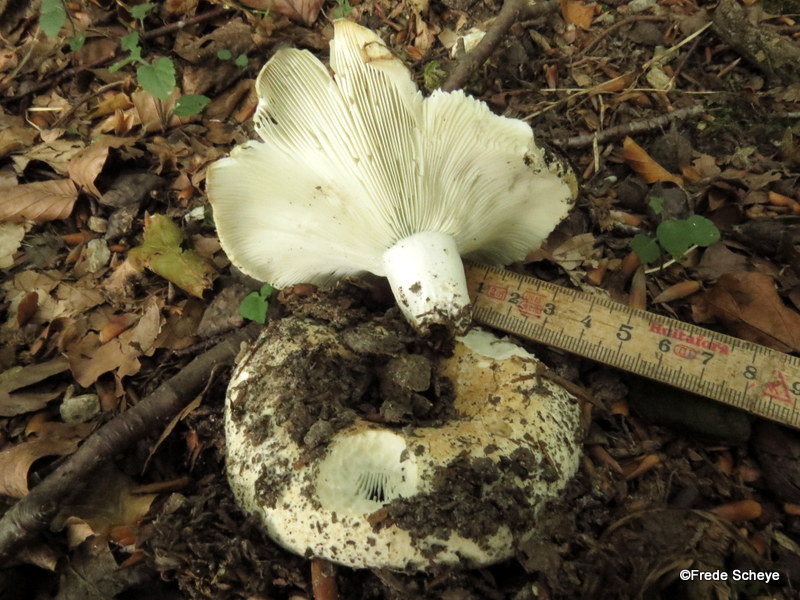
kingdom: Fungi
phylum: Basidiomycota
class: Agaricomycetes
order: Russulales
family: Russulaceae
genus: Russula
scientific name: Russula delica
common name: almindelig tragt-skørhat
